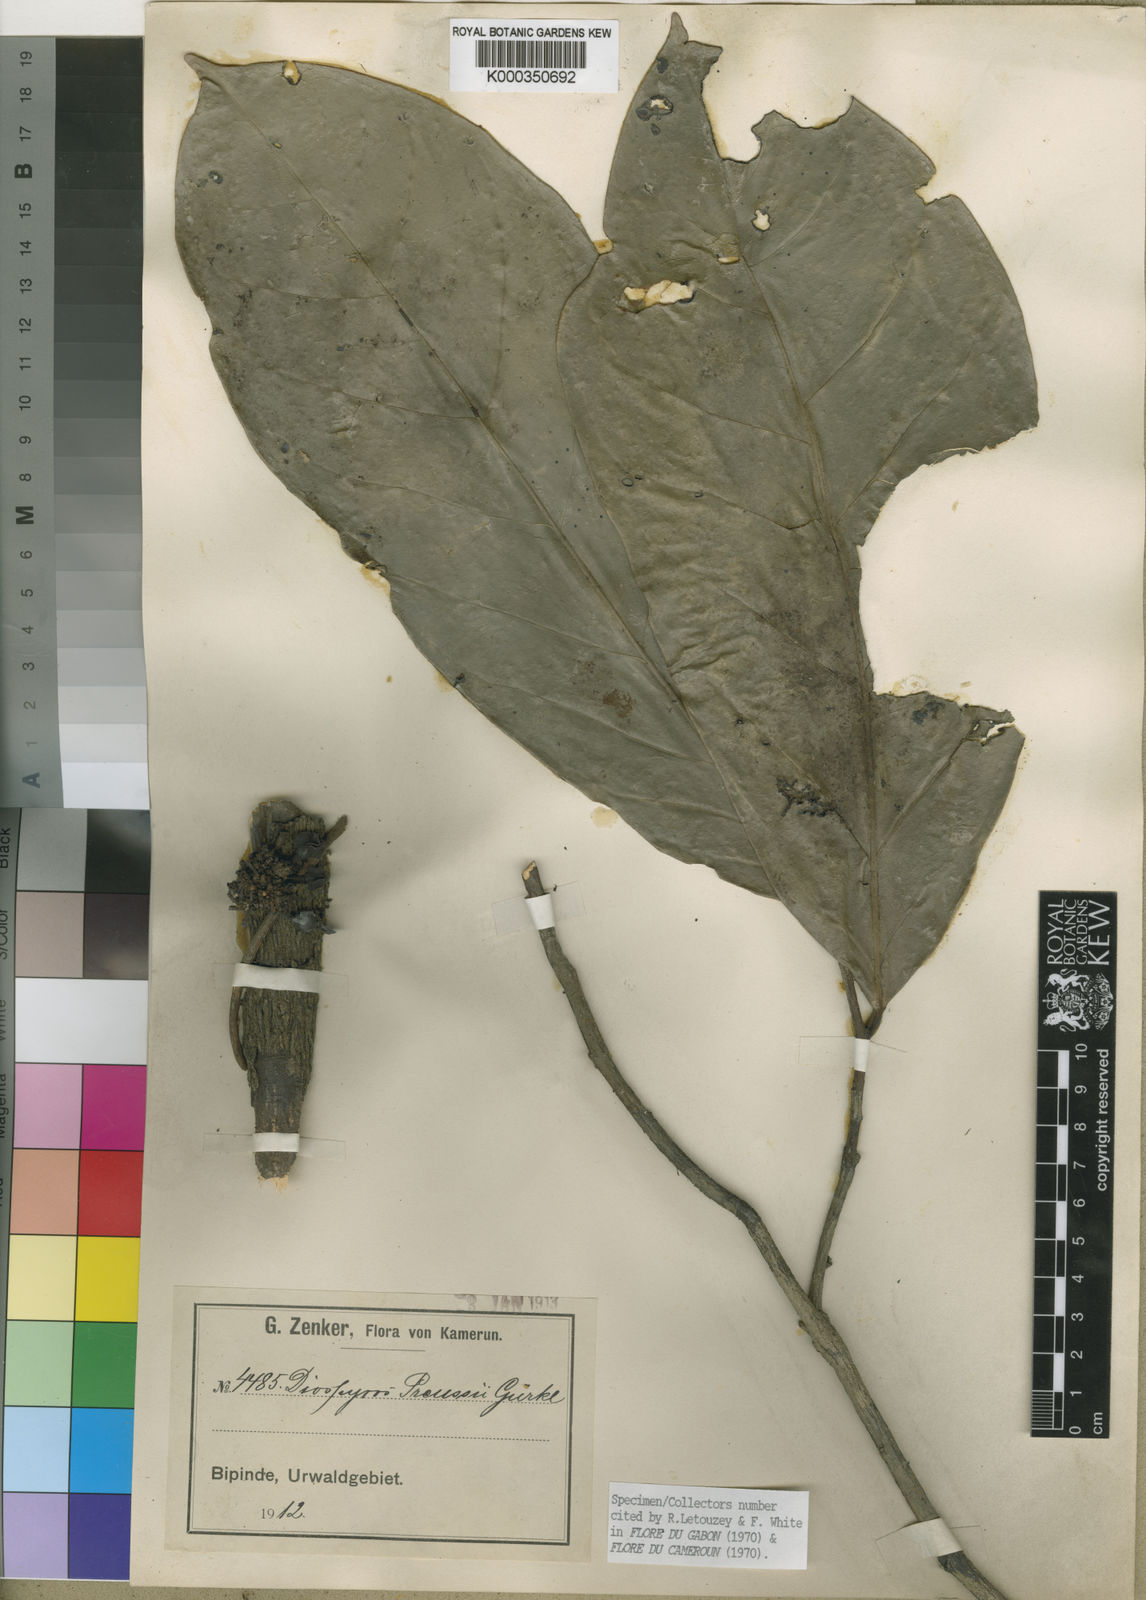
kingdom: Plantae
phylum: Tracheophyta
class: Magnoliopsida
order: Ericales
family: Ebenaceae
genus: Diospyros
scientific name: Diospyros
